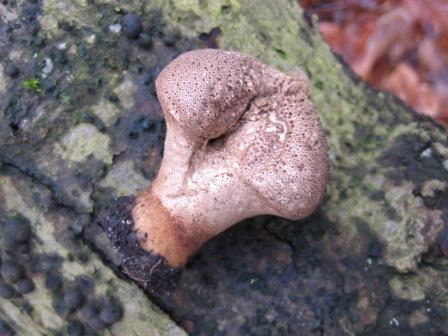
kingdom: Fungi
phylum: Basidiomycota
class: Agaricomycetes
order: Agaricales
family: Lycoperdaceae
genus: Lycoperdon
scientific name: Lycoperdon perlatum
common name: krystal-støvbold
